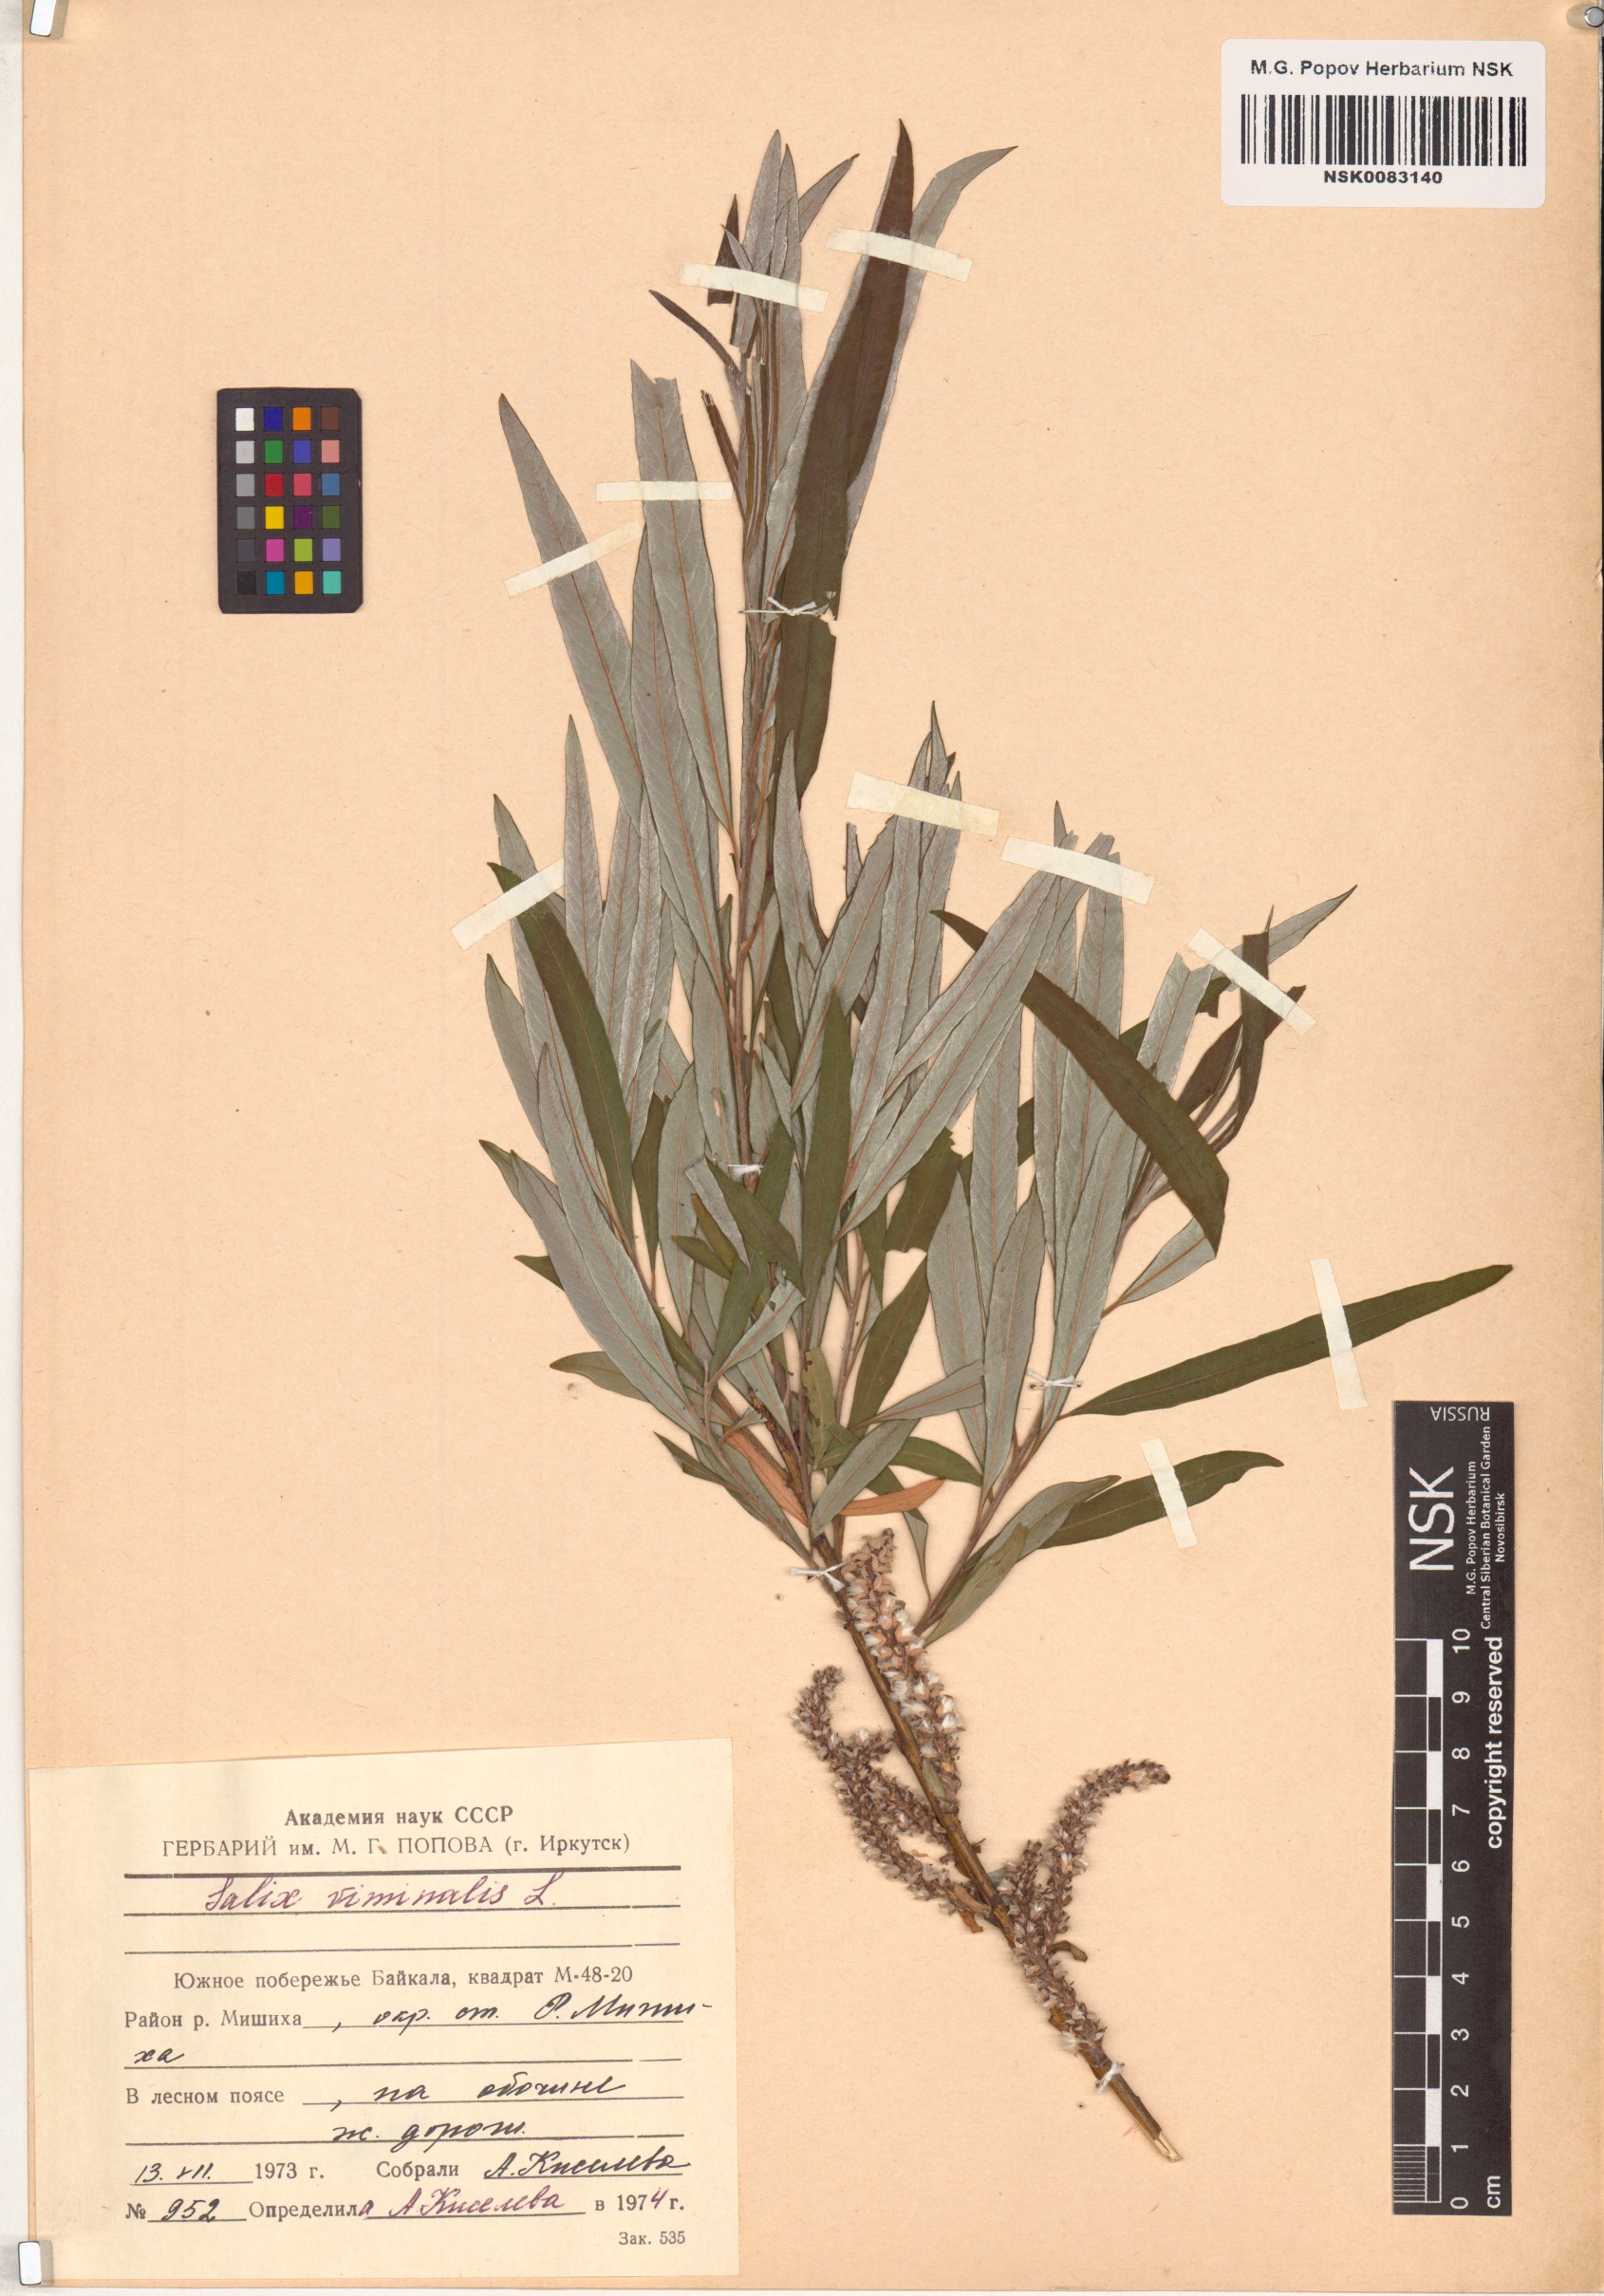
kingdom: Plantae
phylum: Tracheophyta
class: Magnoliopsida
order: Malpighiales
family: Salicaceae
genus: Salix
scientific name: Salix viminalis
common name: Osier
